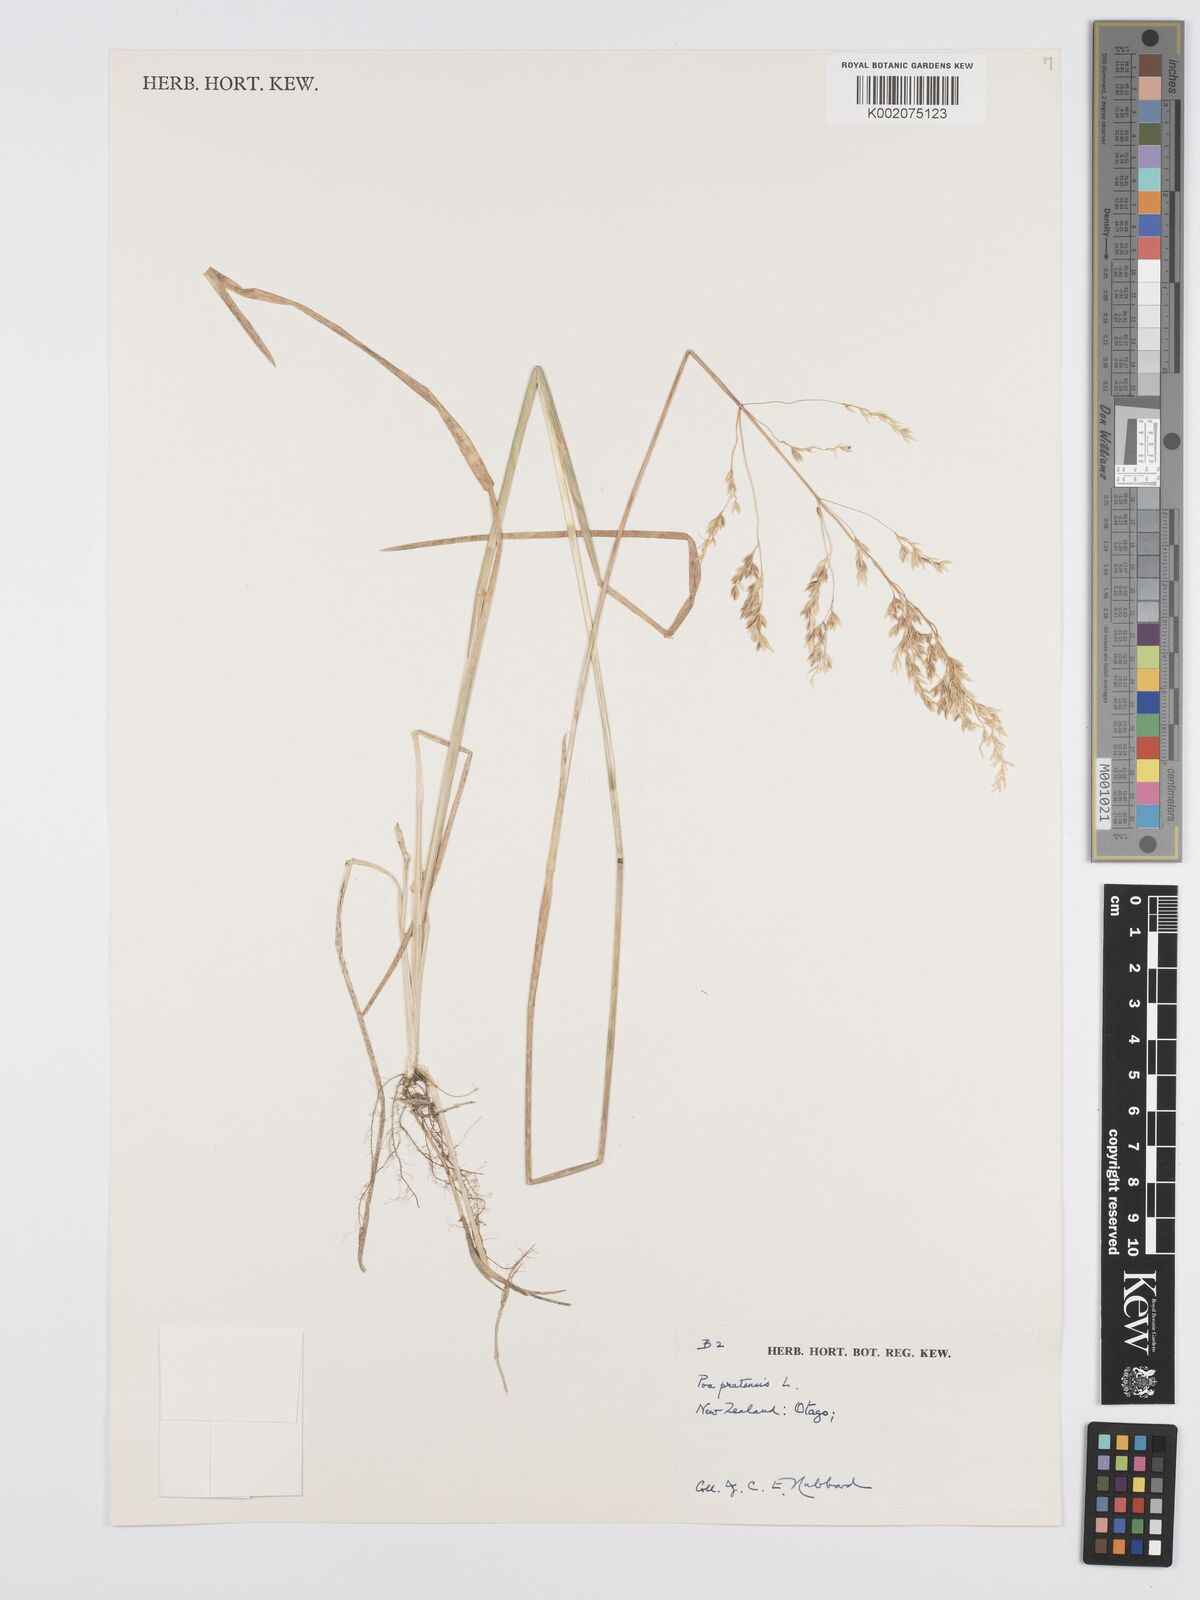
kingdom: Plantae
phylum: Tracheophyta
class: Liliopsida
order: Poales
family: Poaceae
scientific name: Poaceae
